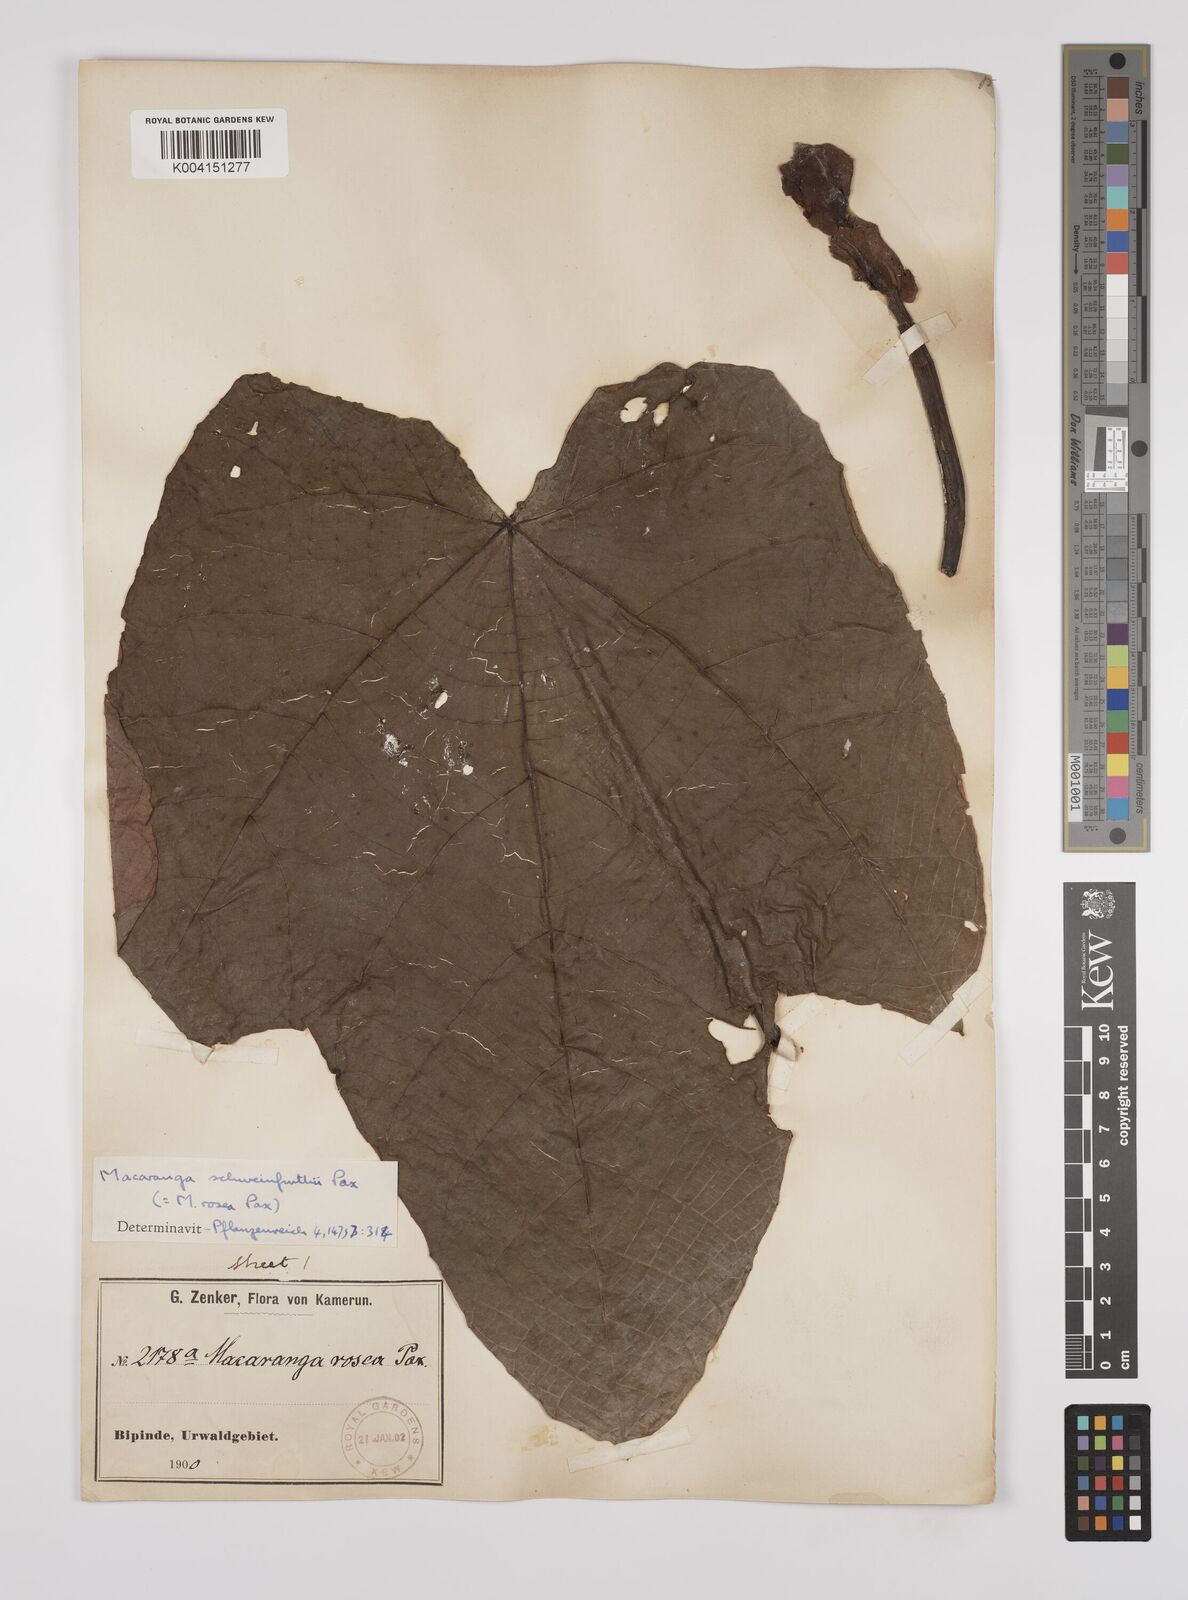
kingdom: Plantae
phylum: Tracheophyta
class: Magnoliopsida
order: Malpighiales
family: Euphorbiaceae
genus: Macaranga
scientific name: Macaranga schweinfurthii
